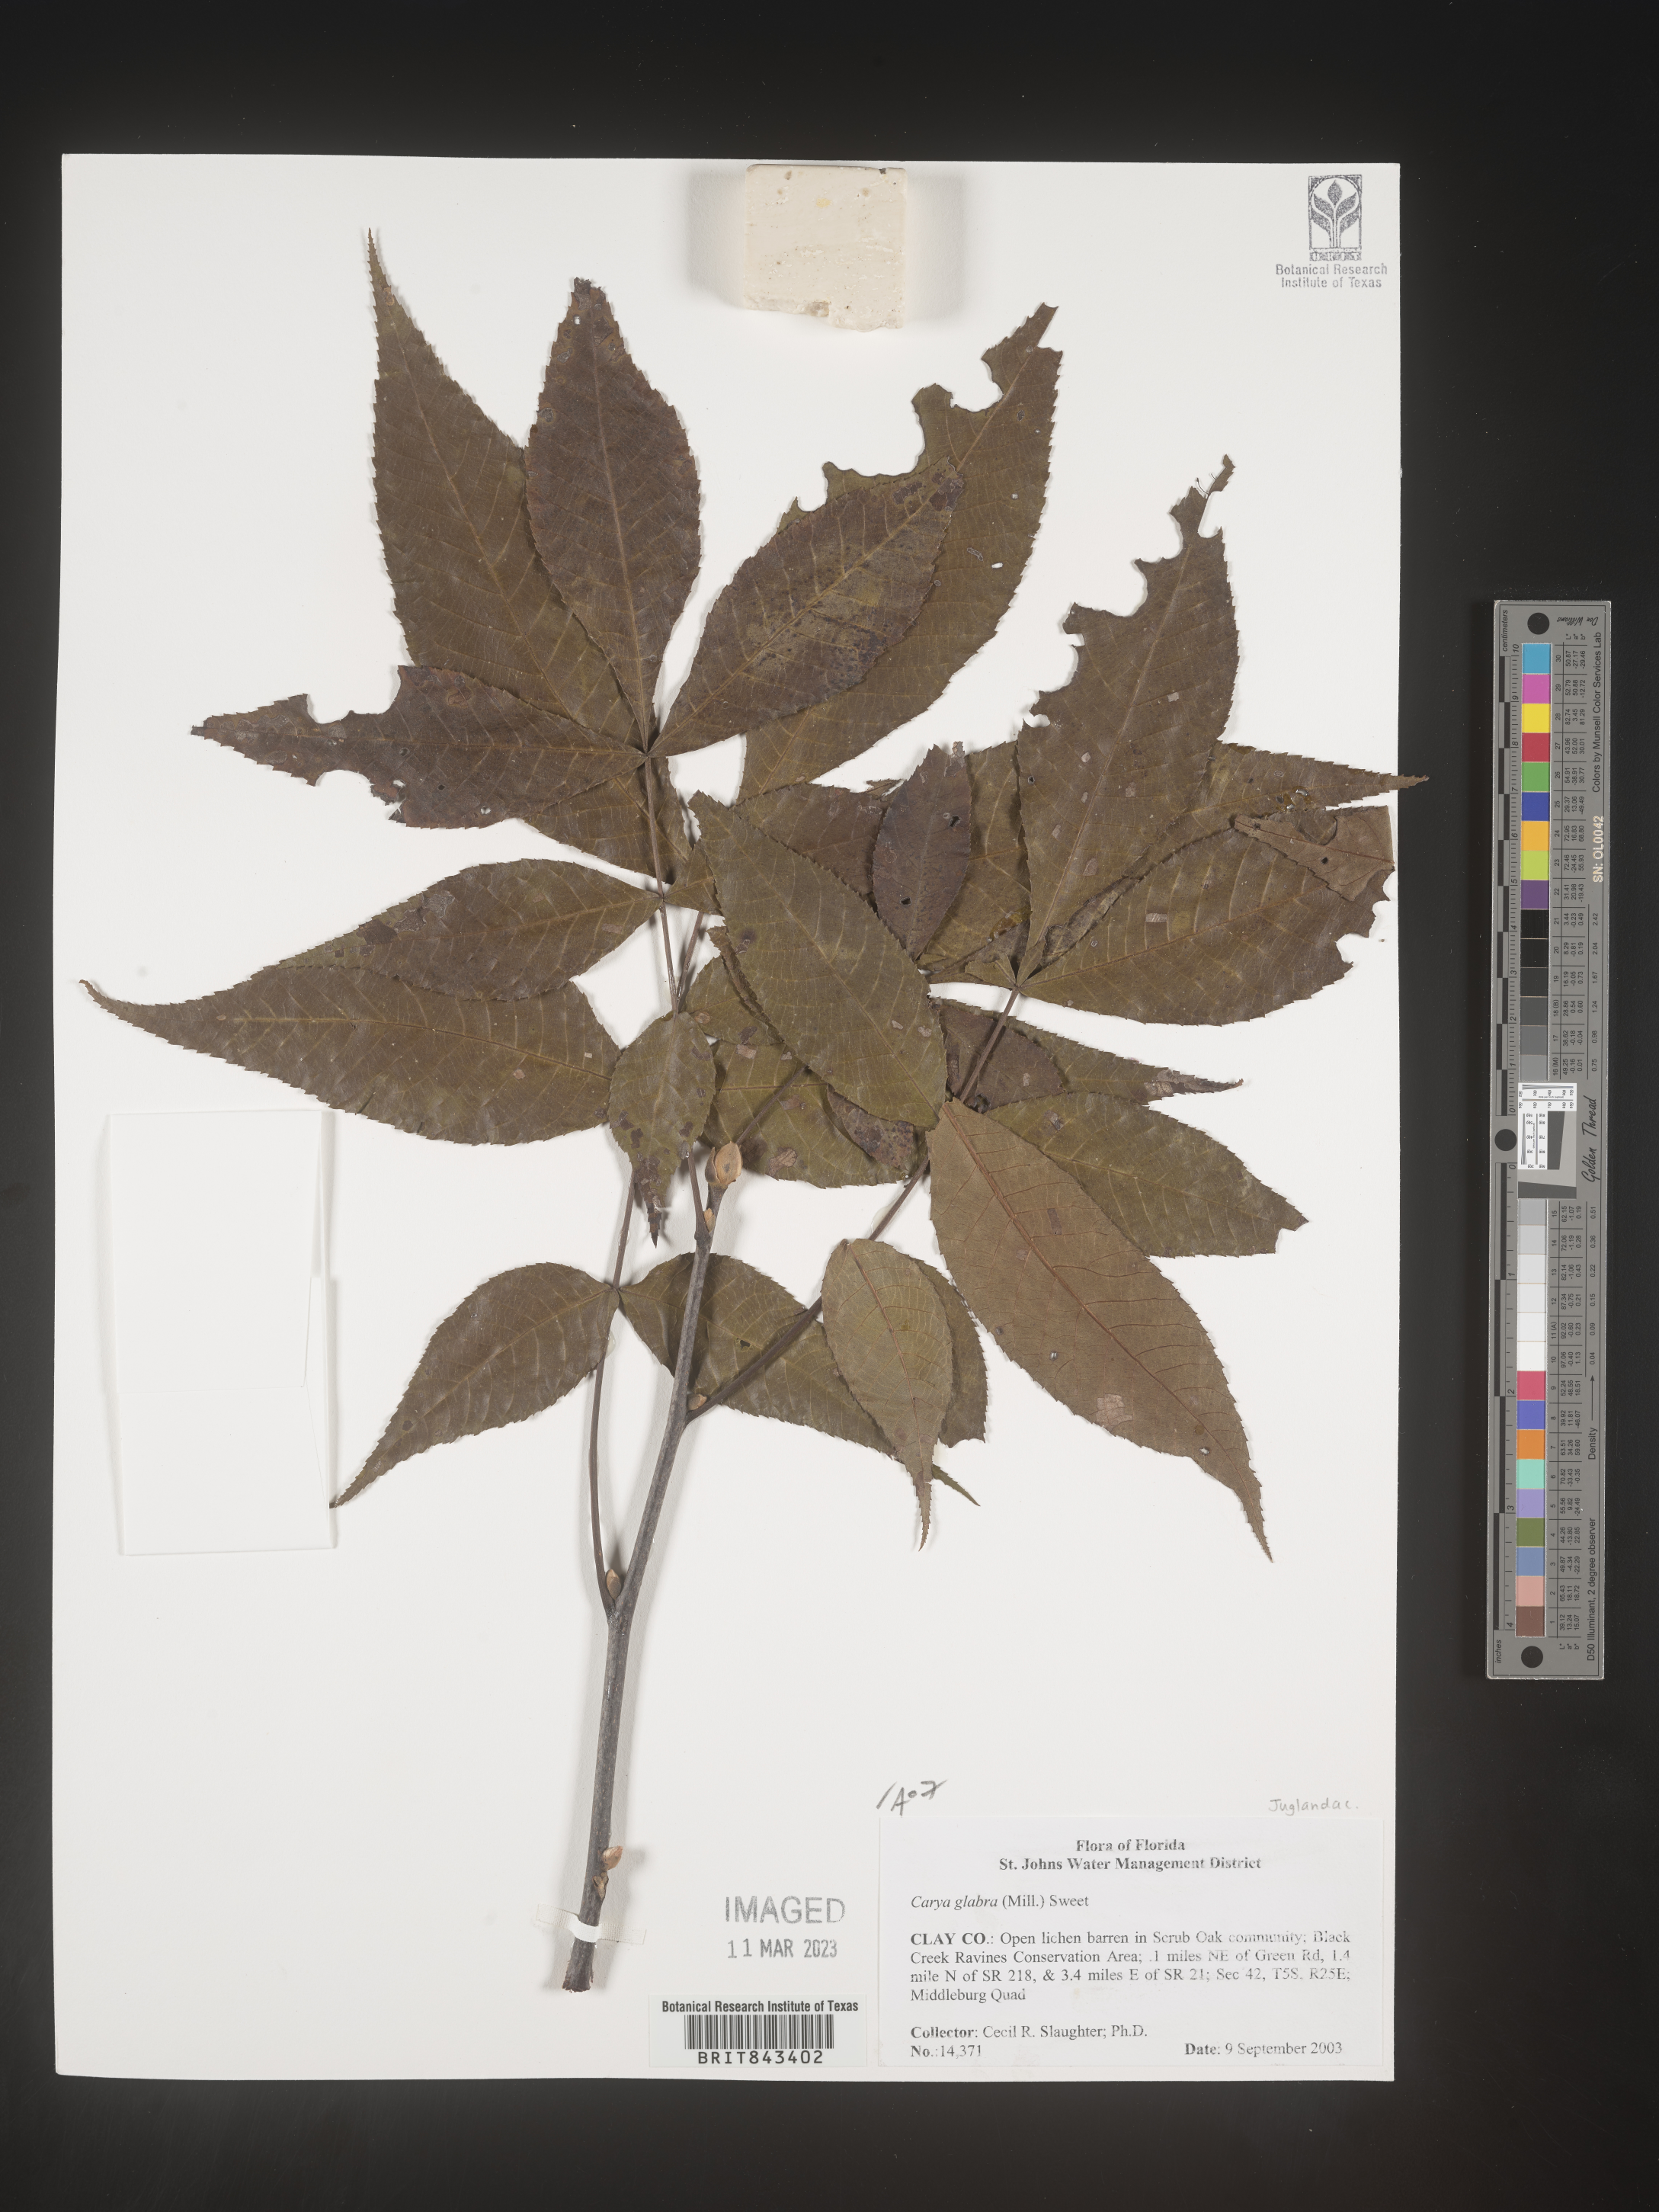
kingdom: Plantae
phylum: Tracheophyta
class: Magnoliopsida
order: Fagales
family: Juglandaceae
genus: Carya
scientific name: Carya glabra
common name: Pignut hickory
